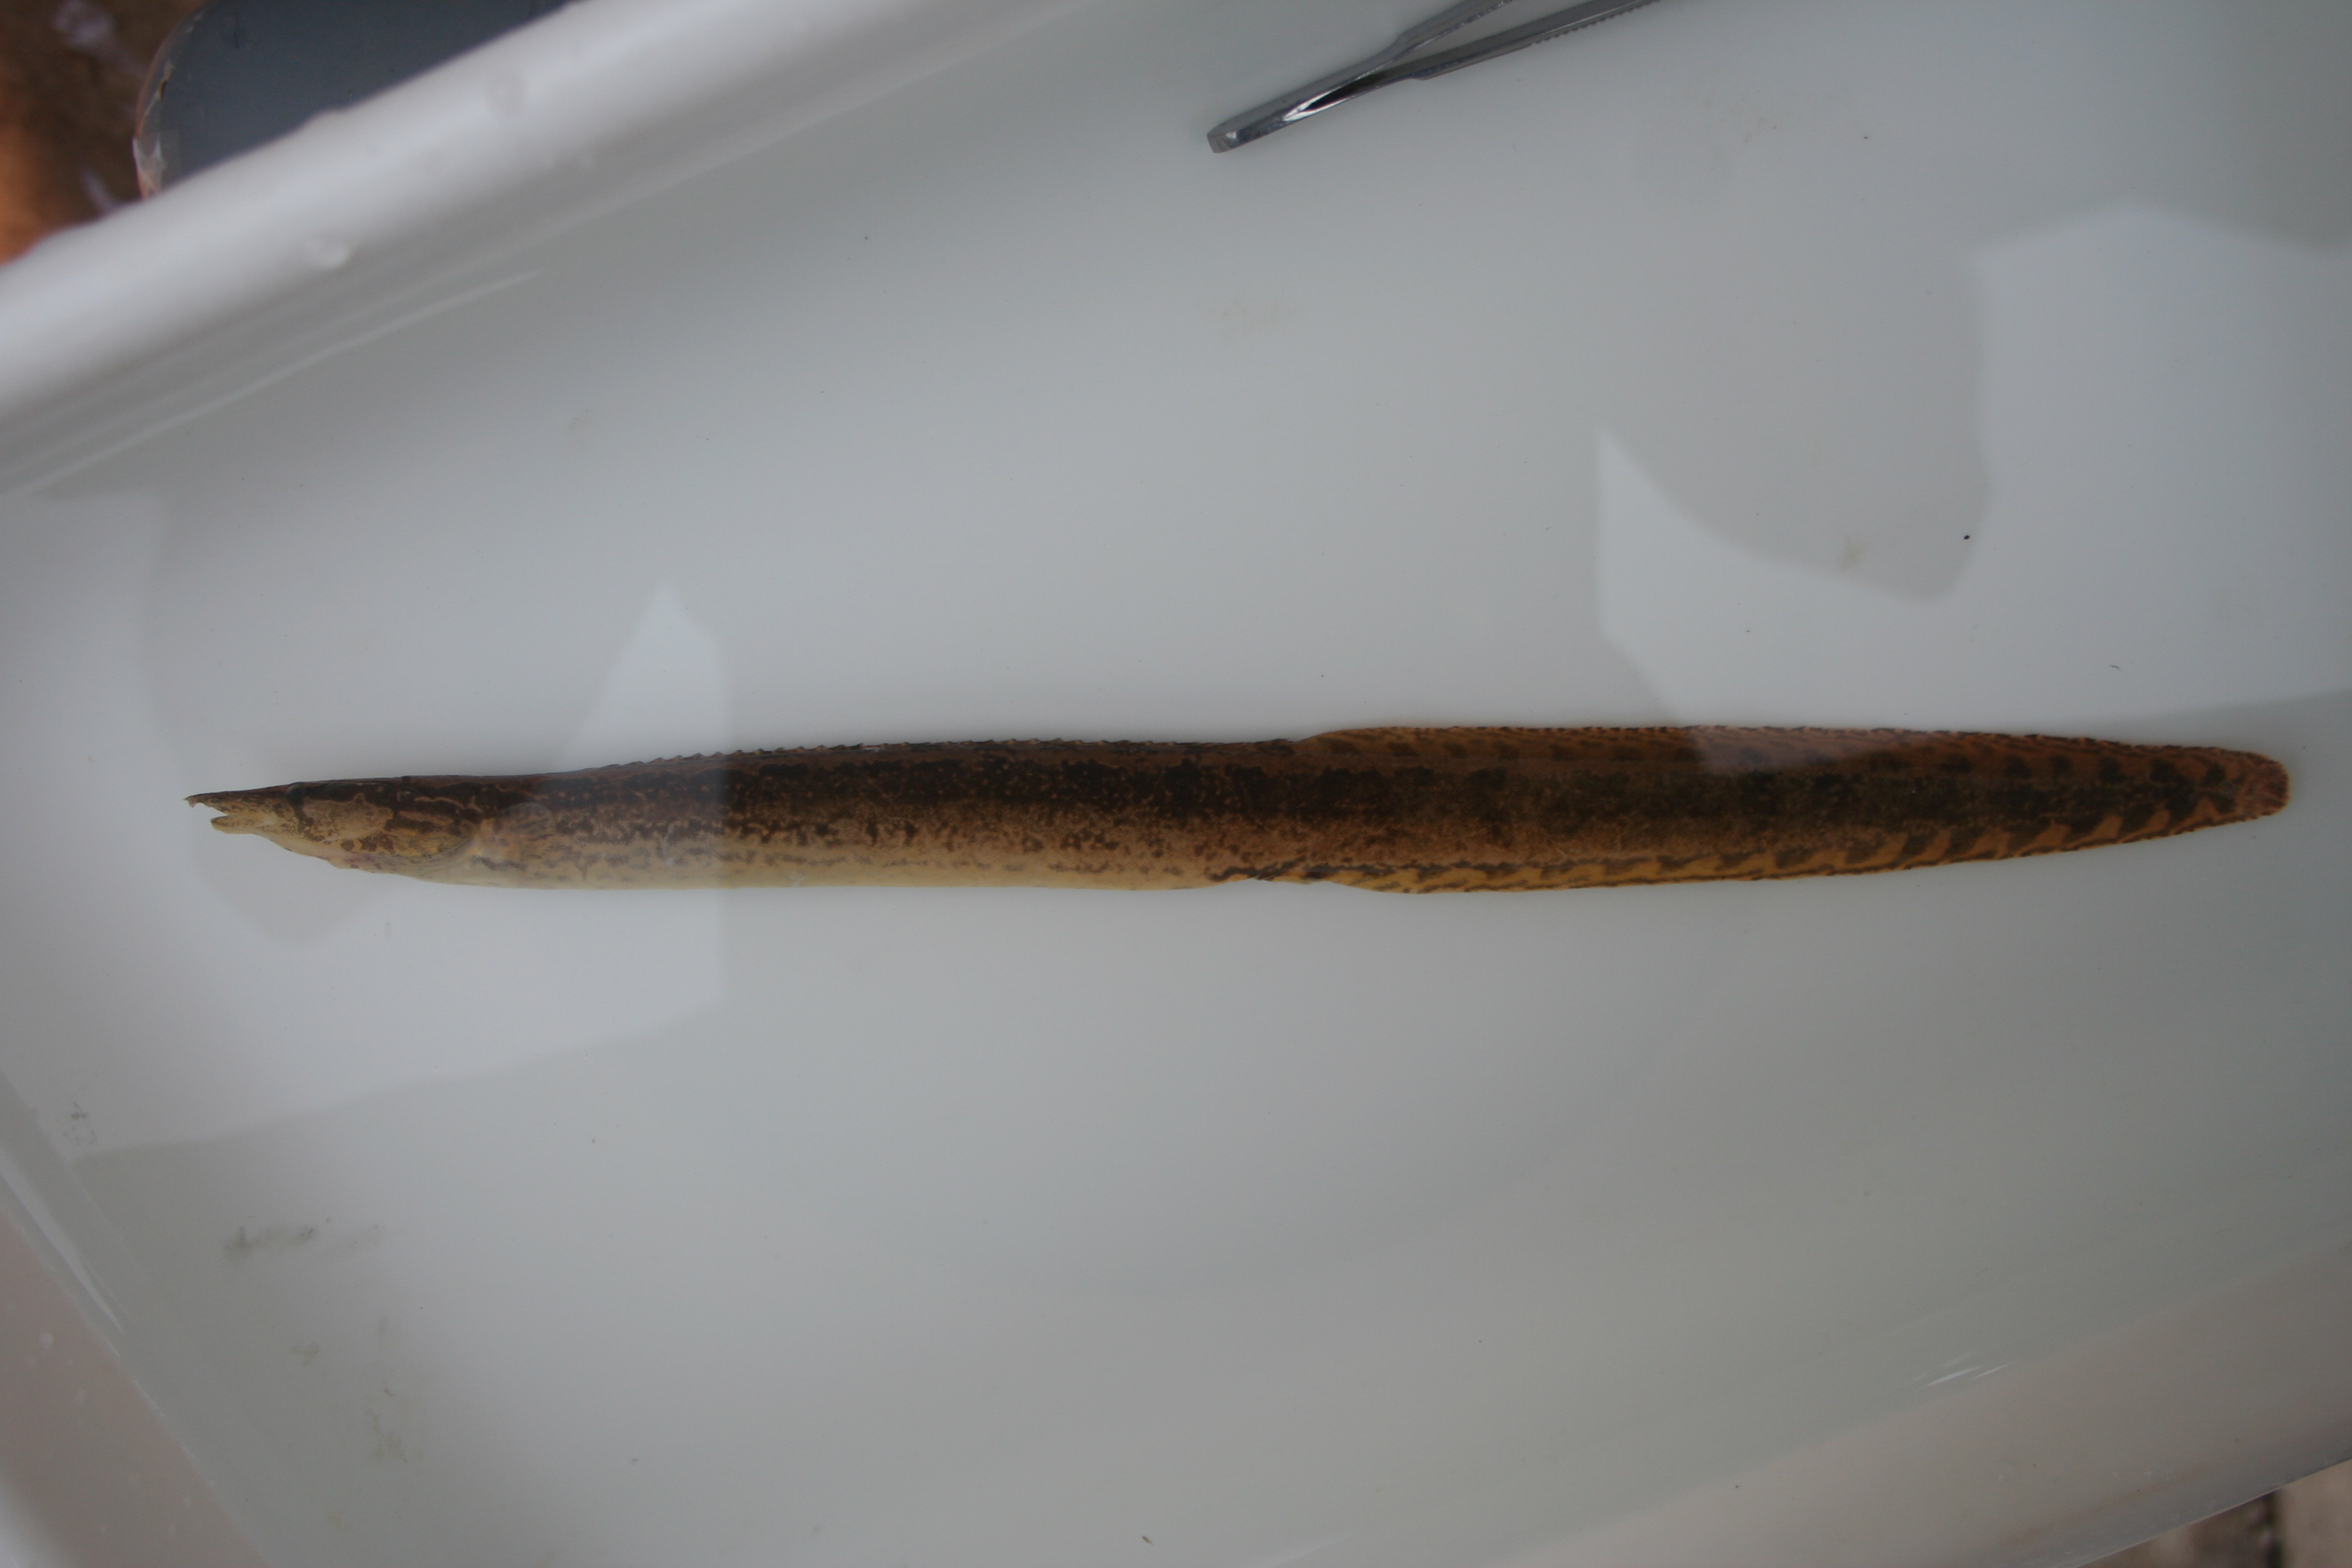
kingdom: Animalia
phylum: Chordata
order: Synbranchiformes
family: Mastacembelidae
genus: Mastacembelus
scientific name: Mastacembelus
